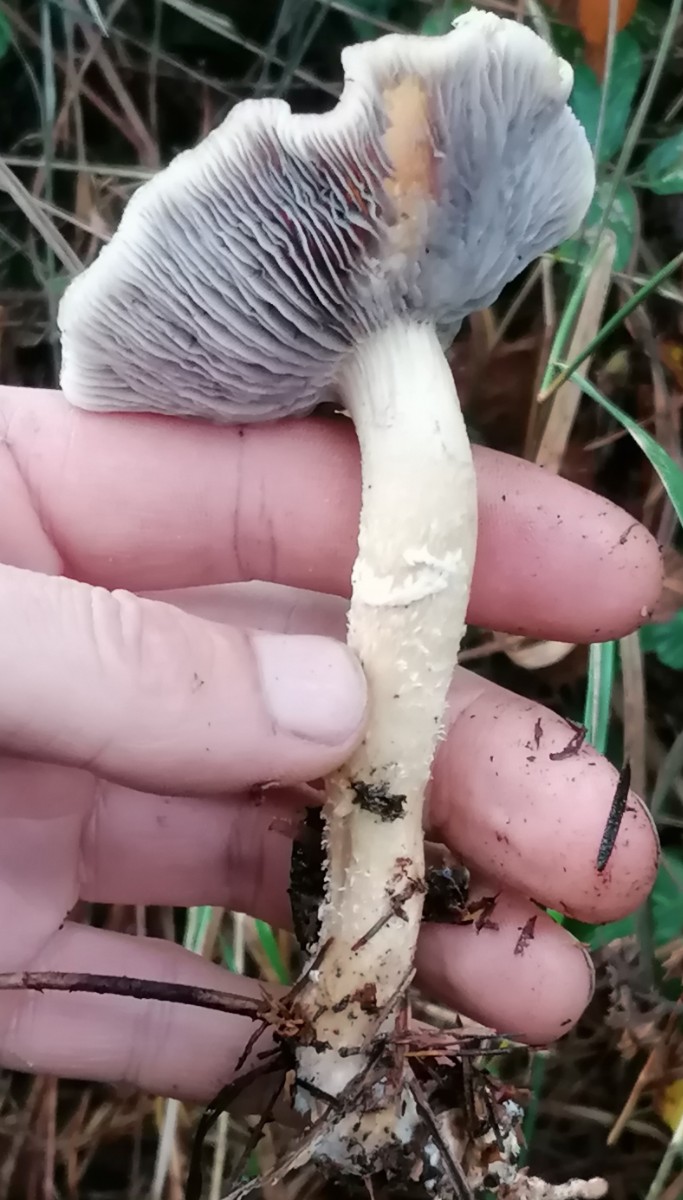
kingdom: Fungi
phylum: Basidiomycota
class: Agaricomycetes
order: Agaricales
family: Strophariaceae
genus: Stropharia
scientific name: Stropharia hornemannii
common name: nordisk bredblad
